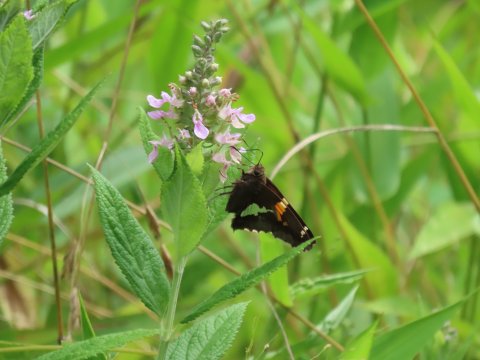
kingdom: Animalia
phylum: Arthropoda
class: Insecta
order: Lepidoptera
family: Hesperiidae
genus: Epargyreus
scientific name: Epargyreus clarus
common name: Silver-spotted Skipper
